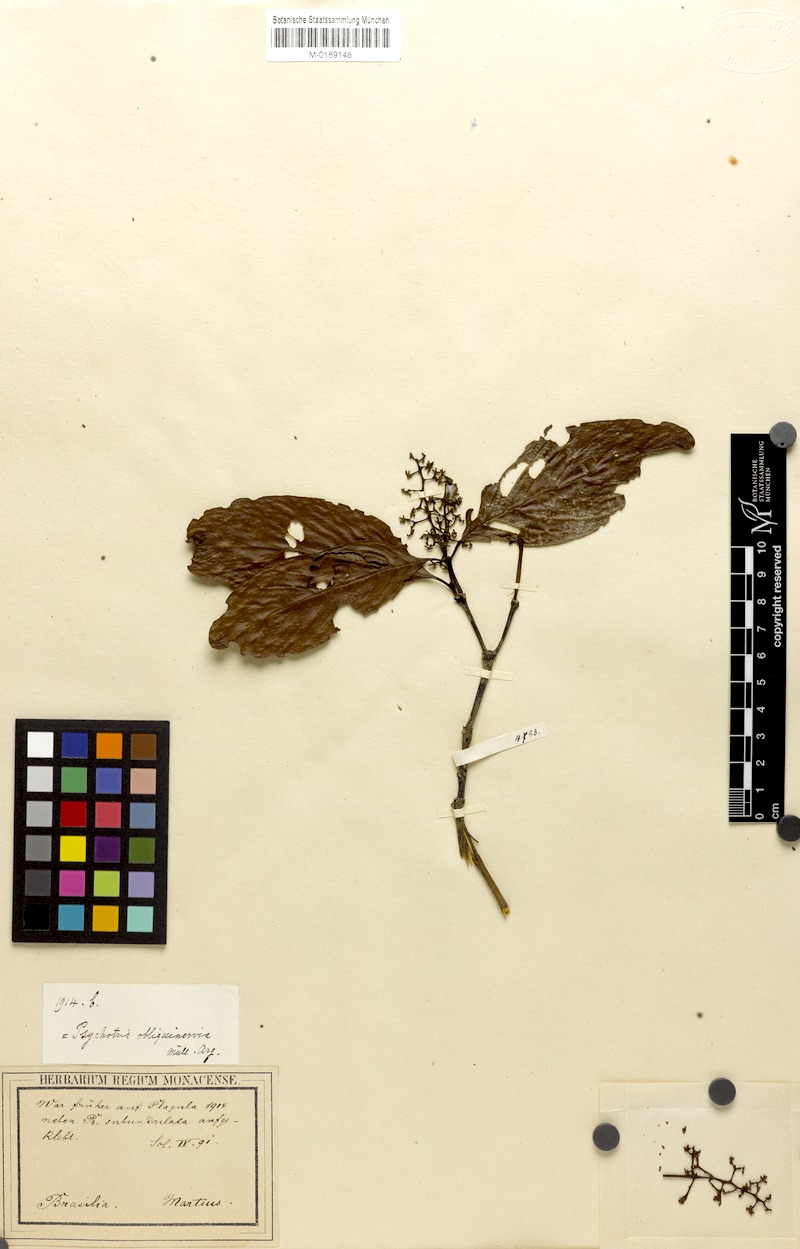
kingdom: Plantae
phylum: Tracheophyta
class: Magnoliopsida
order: Gentianales
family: Rubiaceae
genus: Palicourea
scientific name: Palicourea obliquinervia
